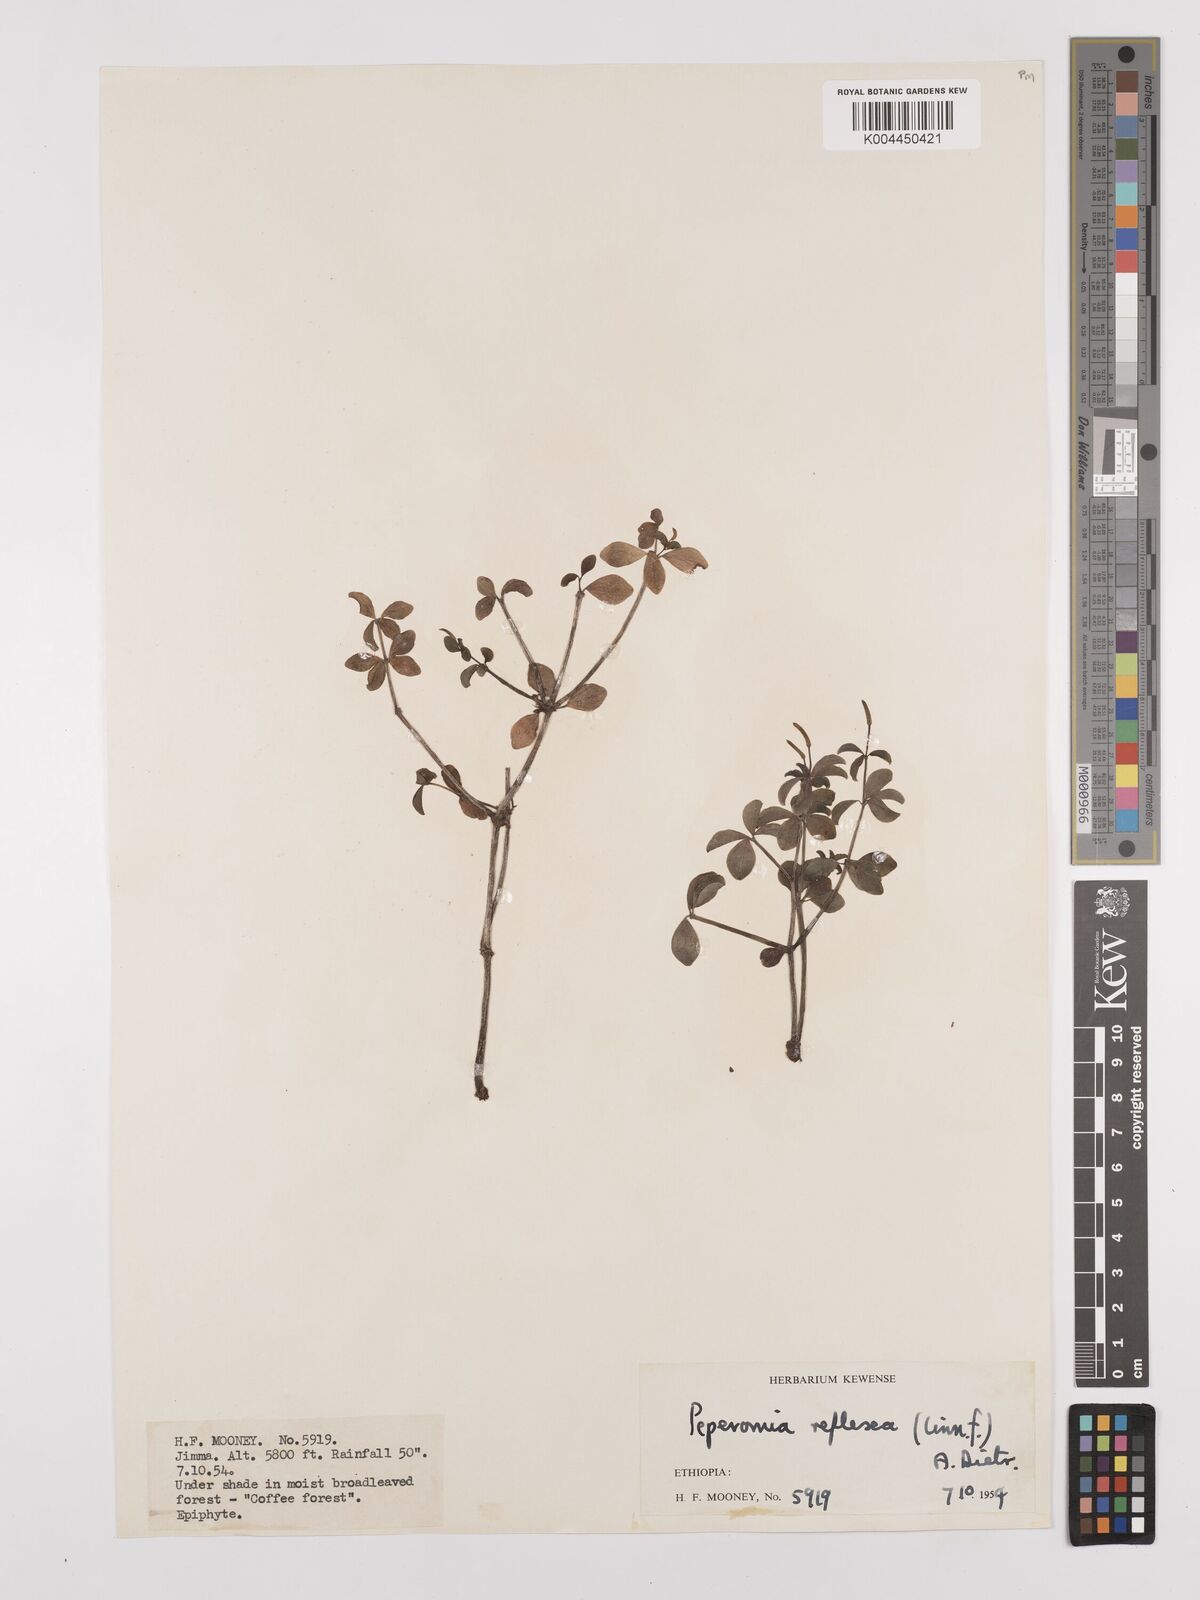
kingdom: Plantae
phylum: Tracheophyta
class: Magnoliopsida
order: Piperales
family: Piperaceae
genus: Peperomia
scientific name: Peperomia tetraphylla
